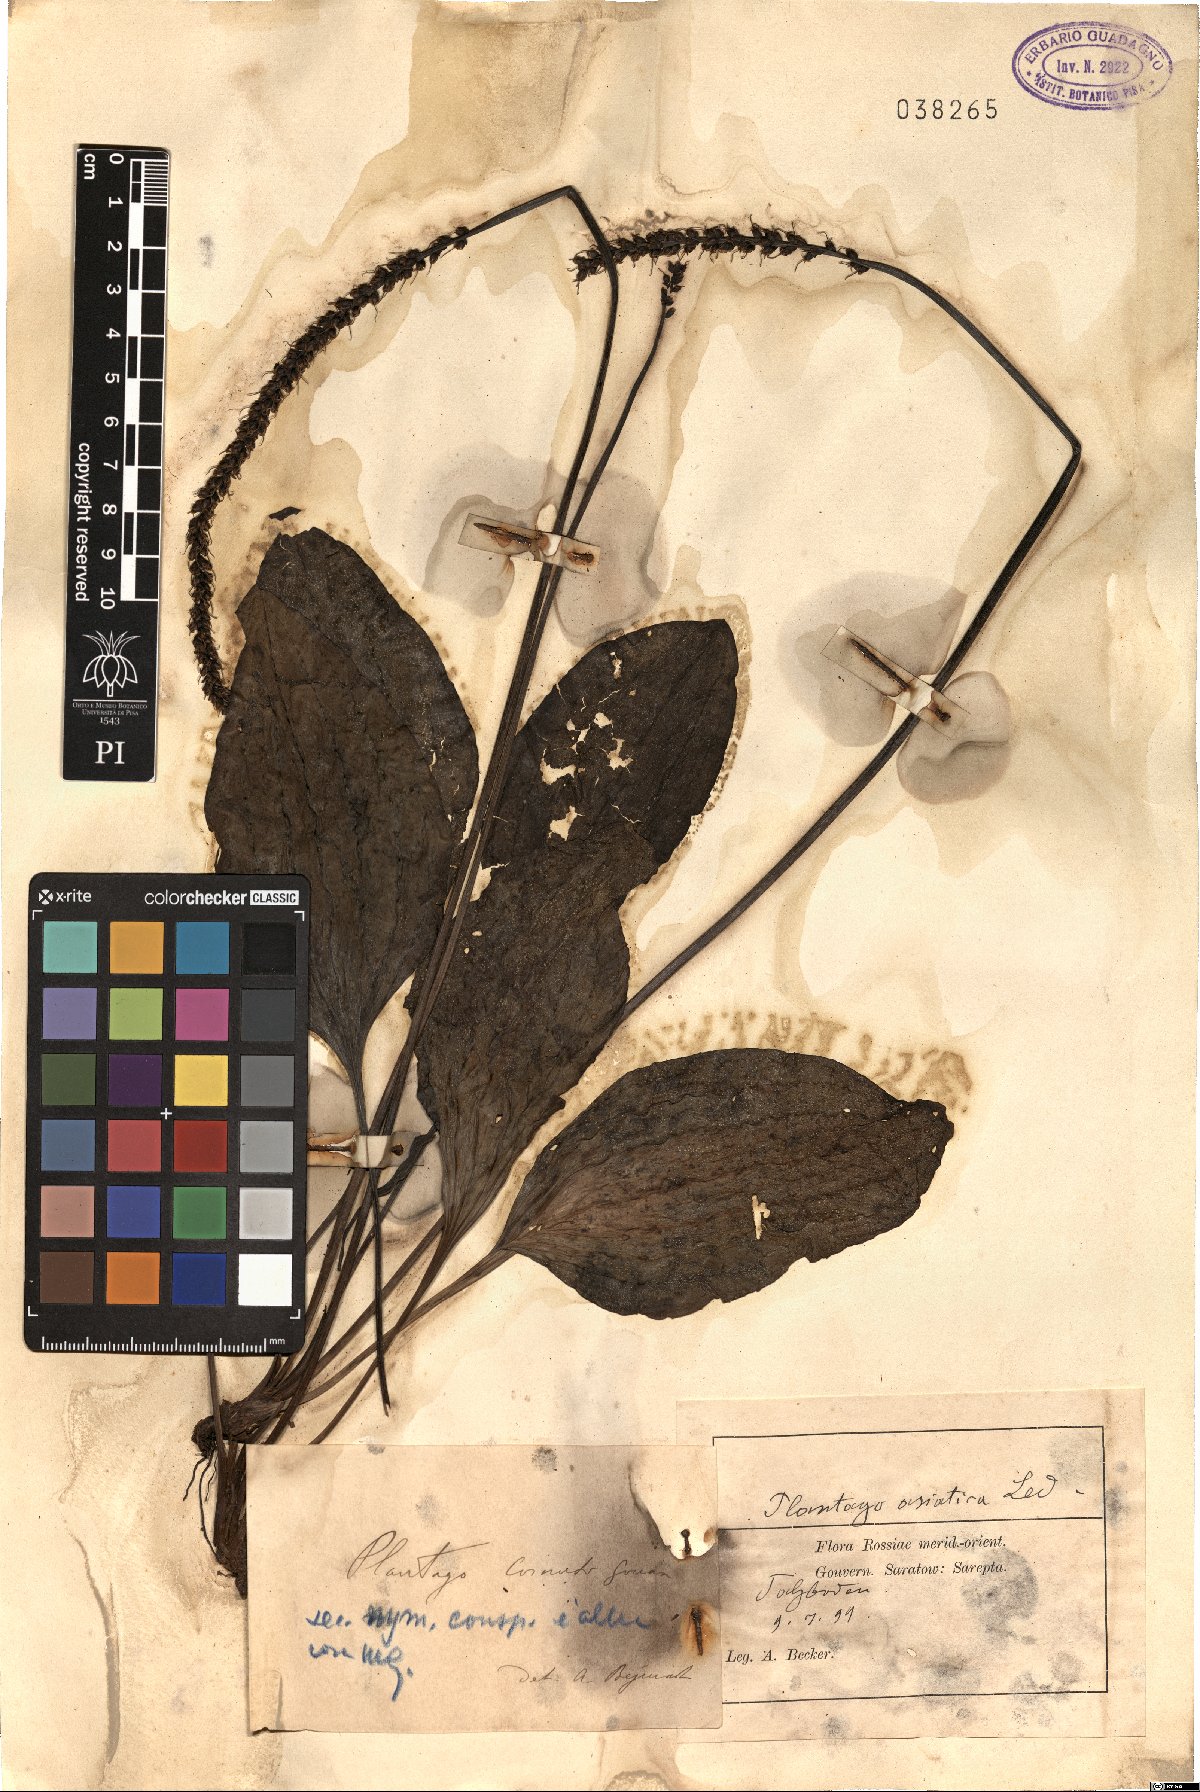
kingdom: Plantae
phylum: Tracheophyta
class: Magnoliopsida
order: Lamiales
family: Plantaginaceae
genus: Plantago
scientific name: Plantago cornuti
